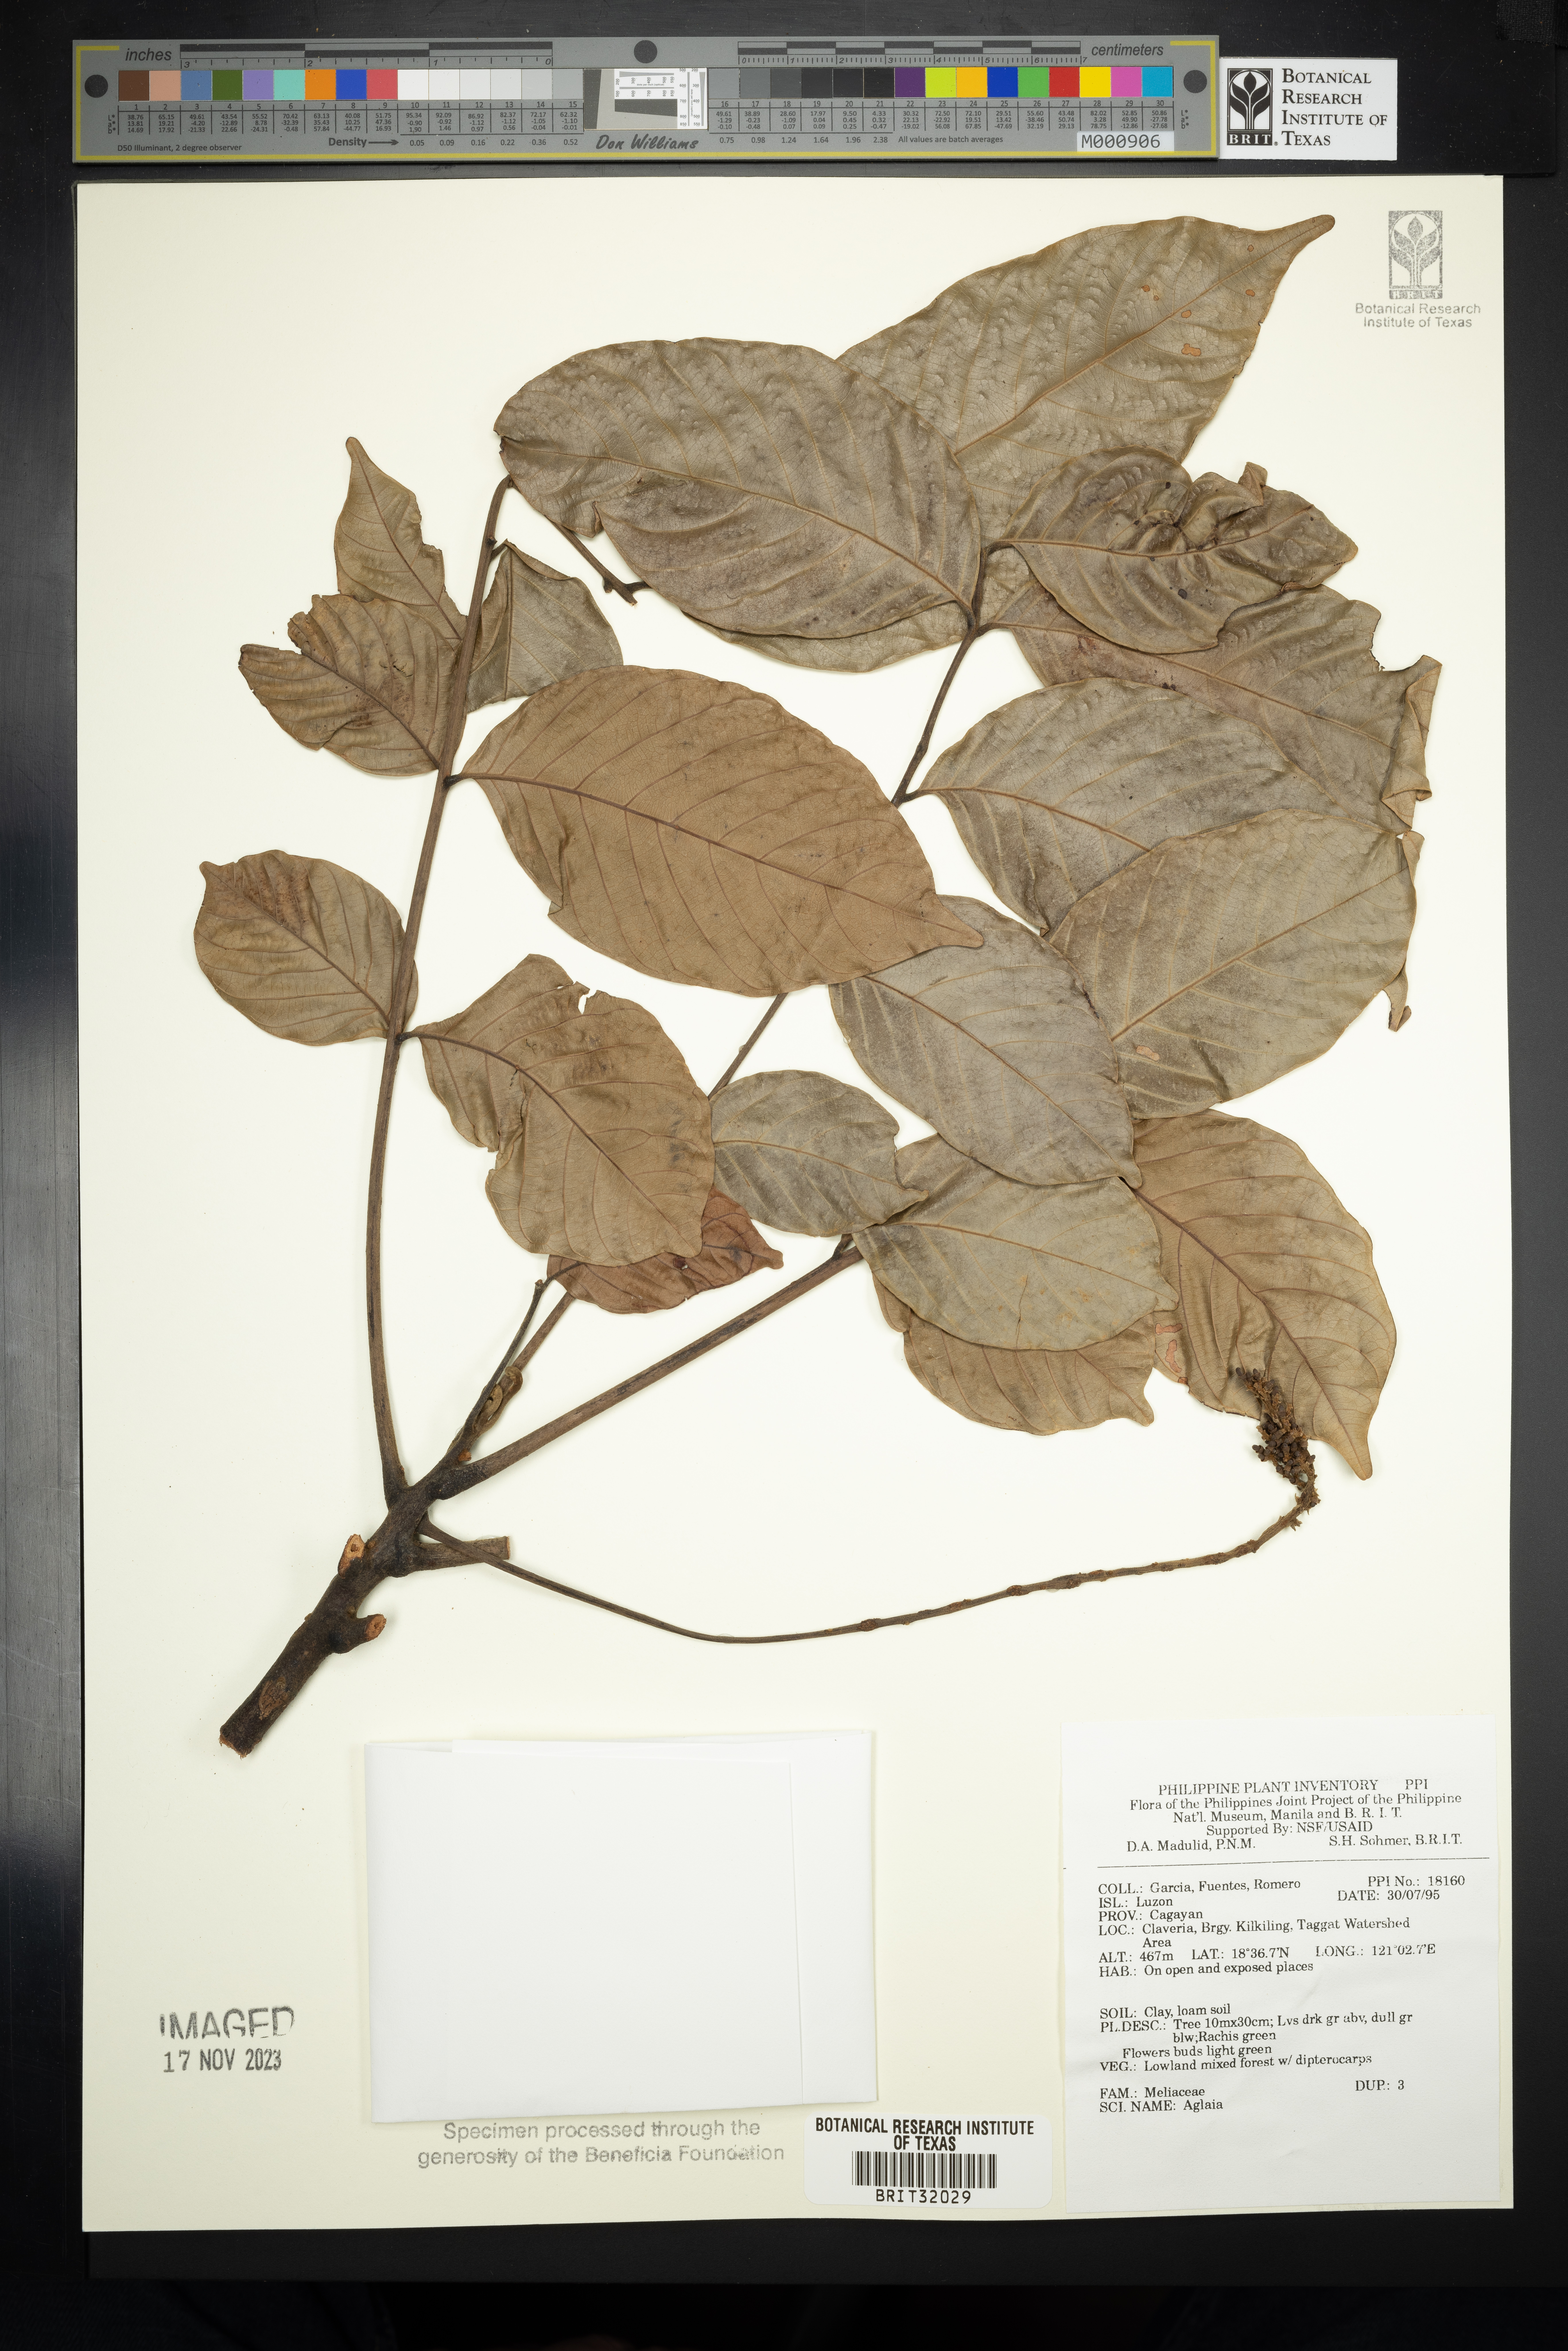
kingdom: Plantae
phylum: Tracheophyta
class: Magnoliopsida
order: Sapindales
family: Meliaceae
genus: Aglaia
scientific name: Aglaia
